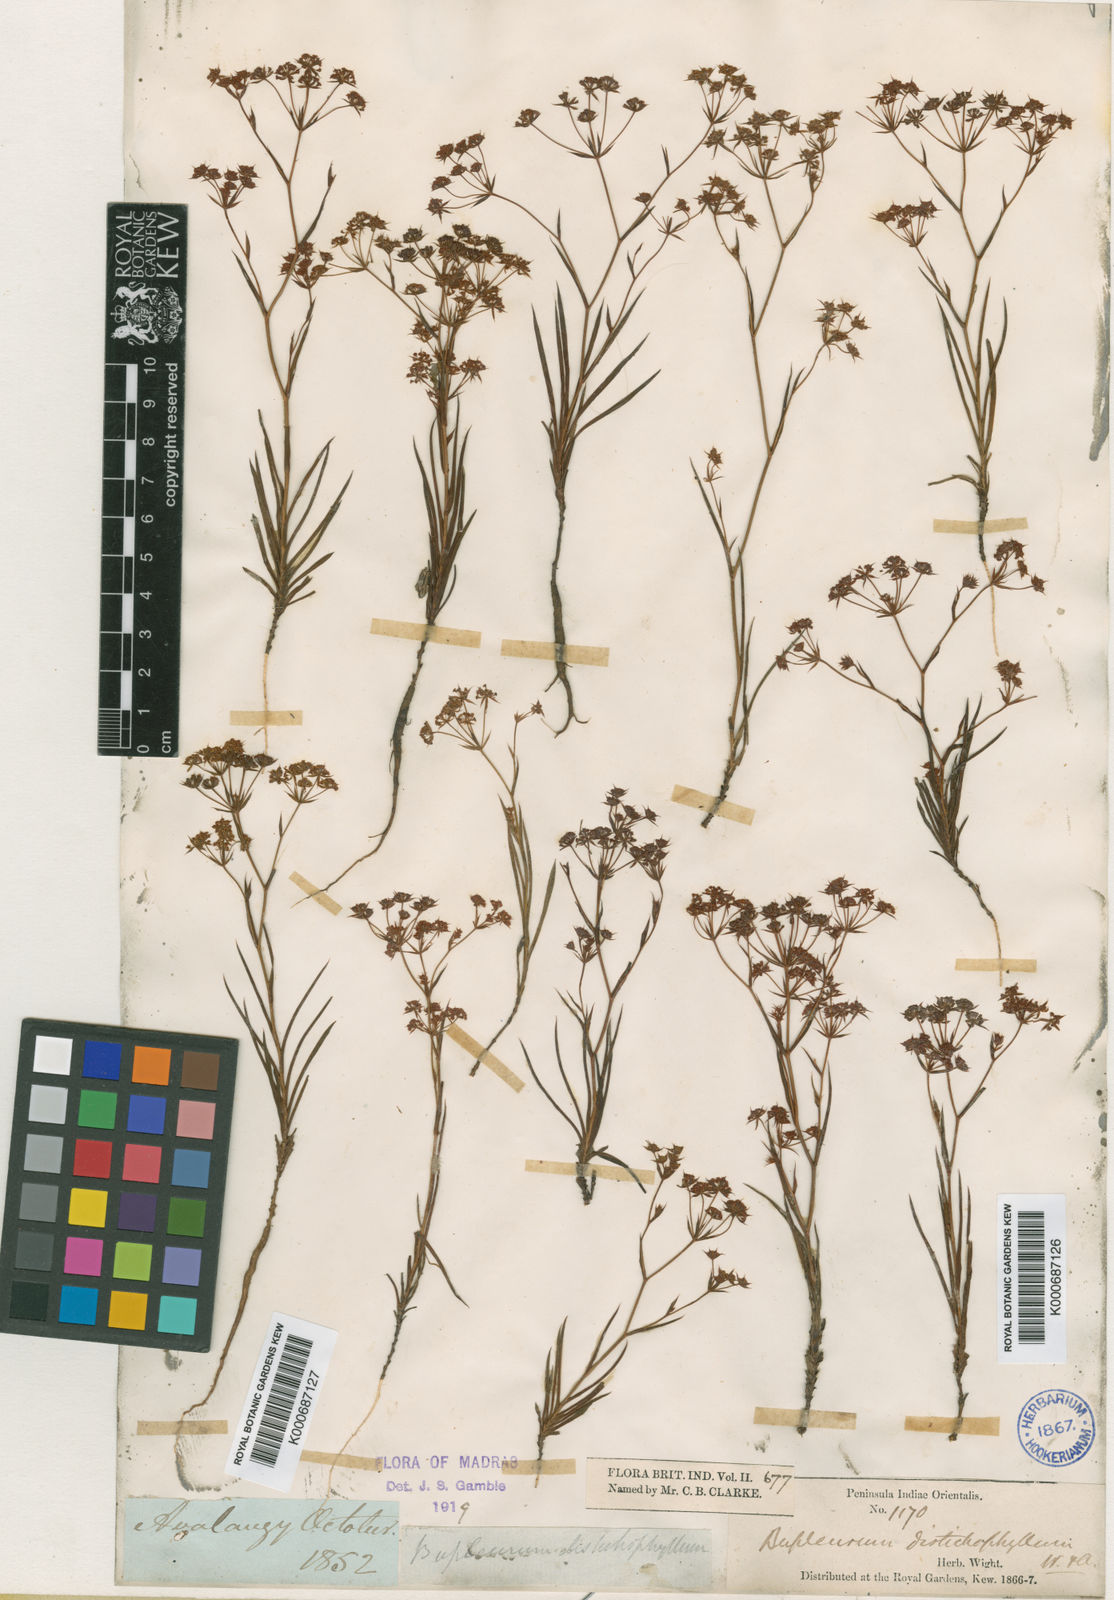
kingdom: Plantae
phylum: Tracheophyta
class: Magnoliopsida
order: Apiales
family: Apiaceae
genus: Bupleurum
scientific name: Bupleurum distichophyllum
